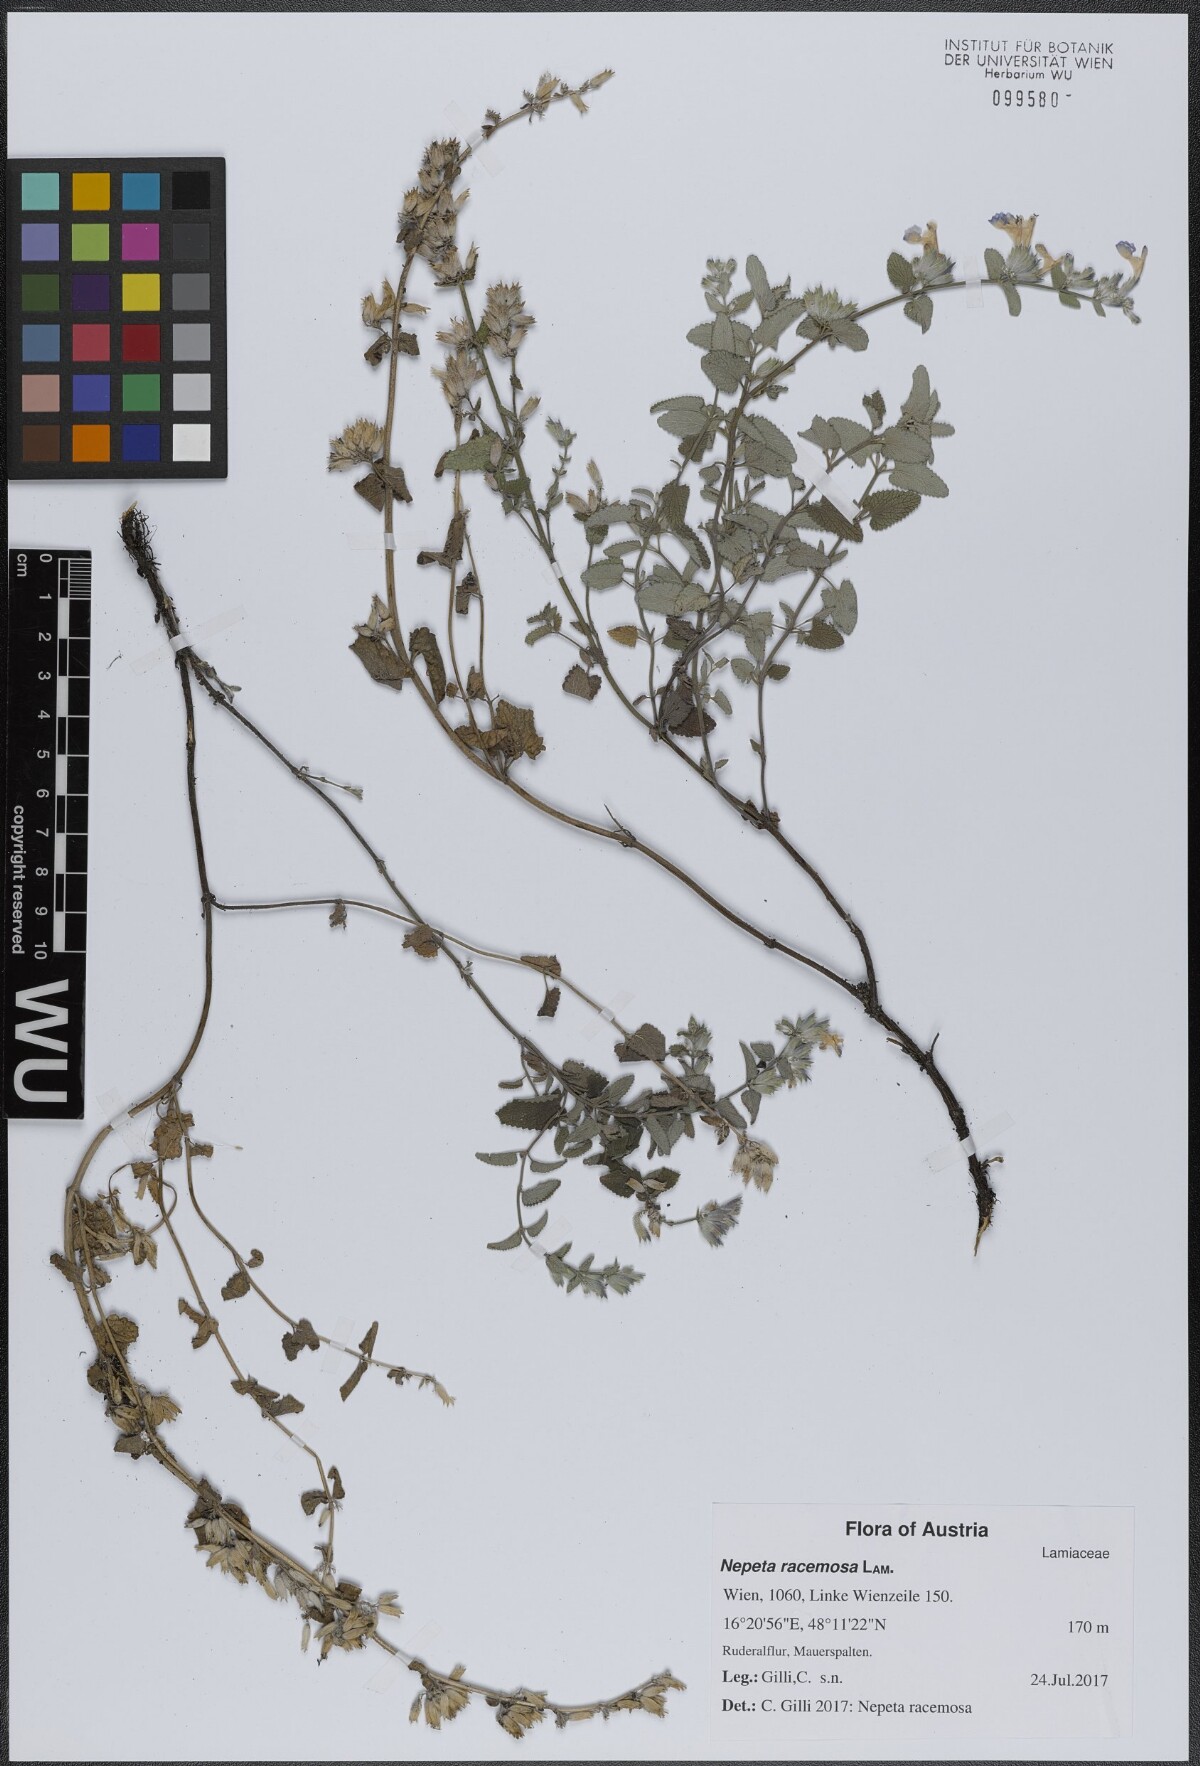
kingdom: Plantae
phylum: Tracheophyta
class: Magnoliopsida
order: Lamiales
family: Lamiaceae
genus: Nepeta
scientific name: Nepeta racemosa
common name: Raceme catnip
